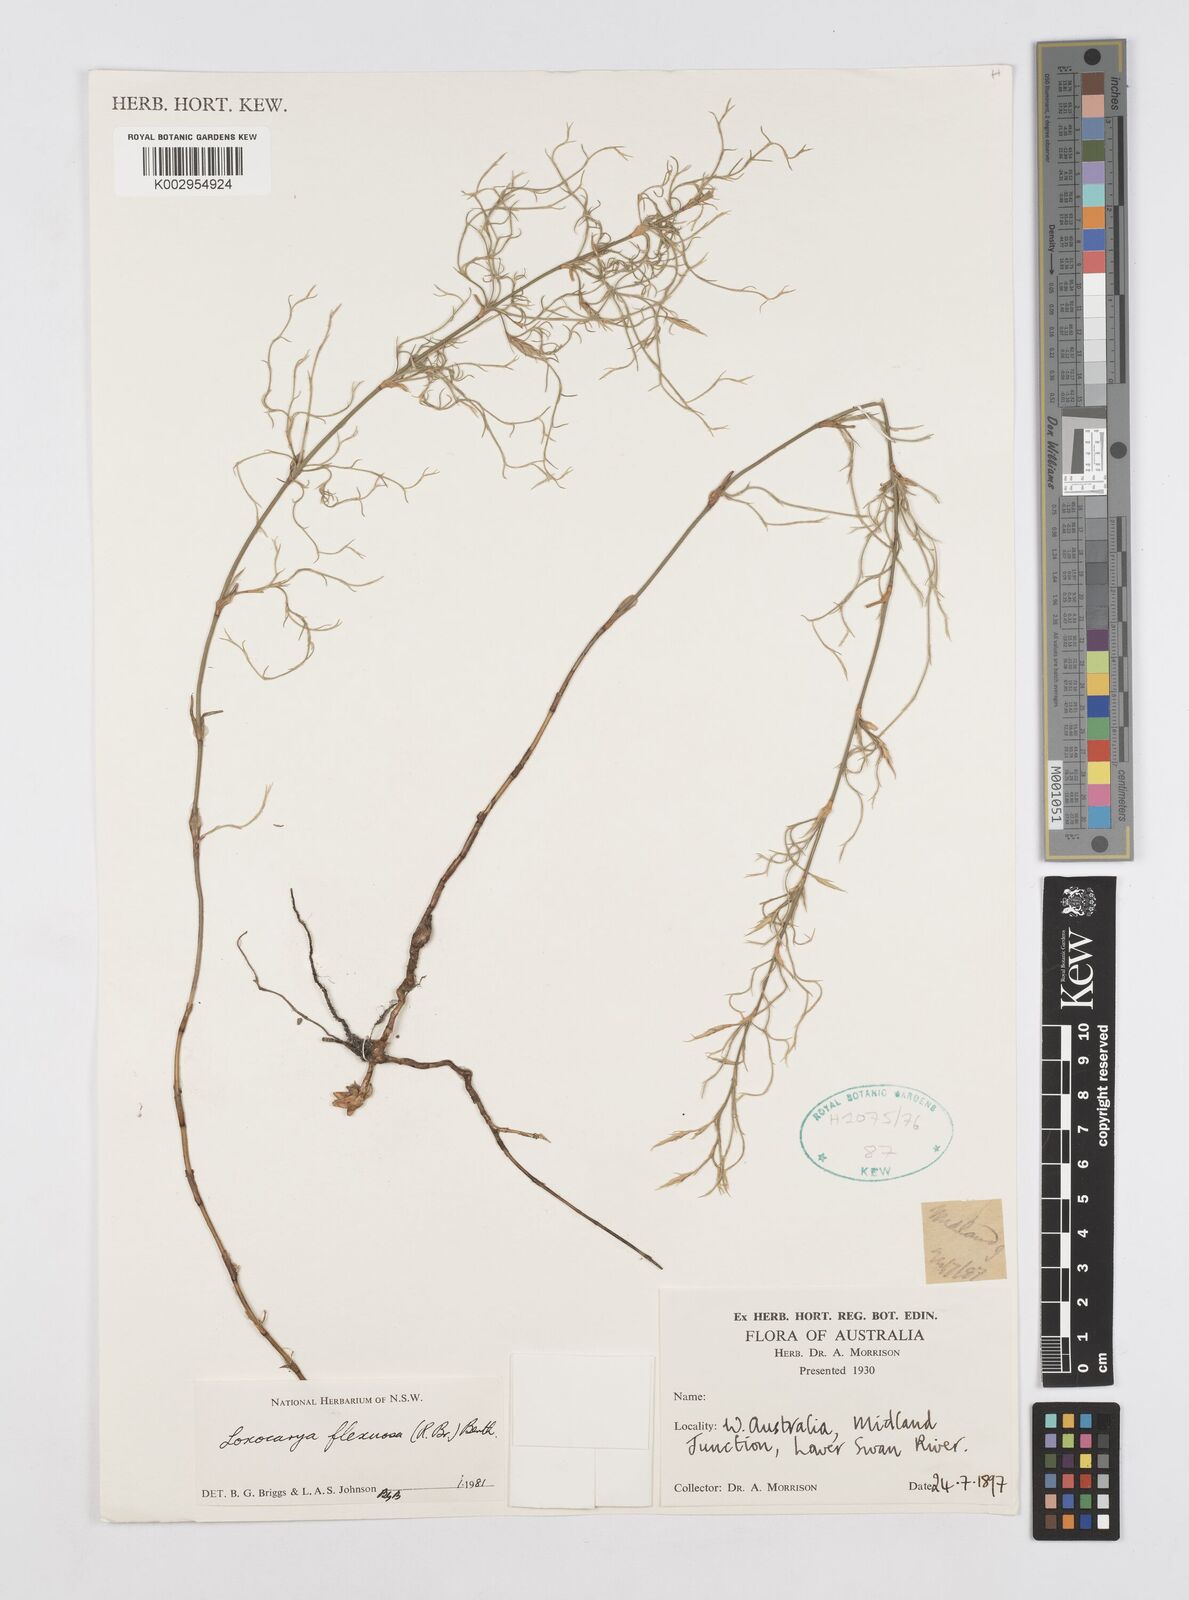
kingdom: Plantae
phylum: Tracheophyta
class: Liliopsida
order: Poales
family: Restionaceae
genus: Desmocladus
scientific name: Desmocladus flexuosus
